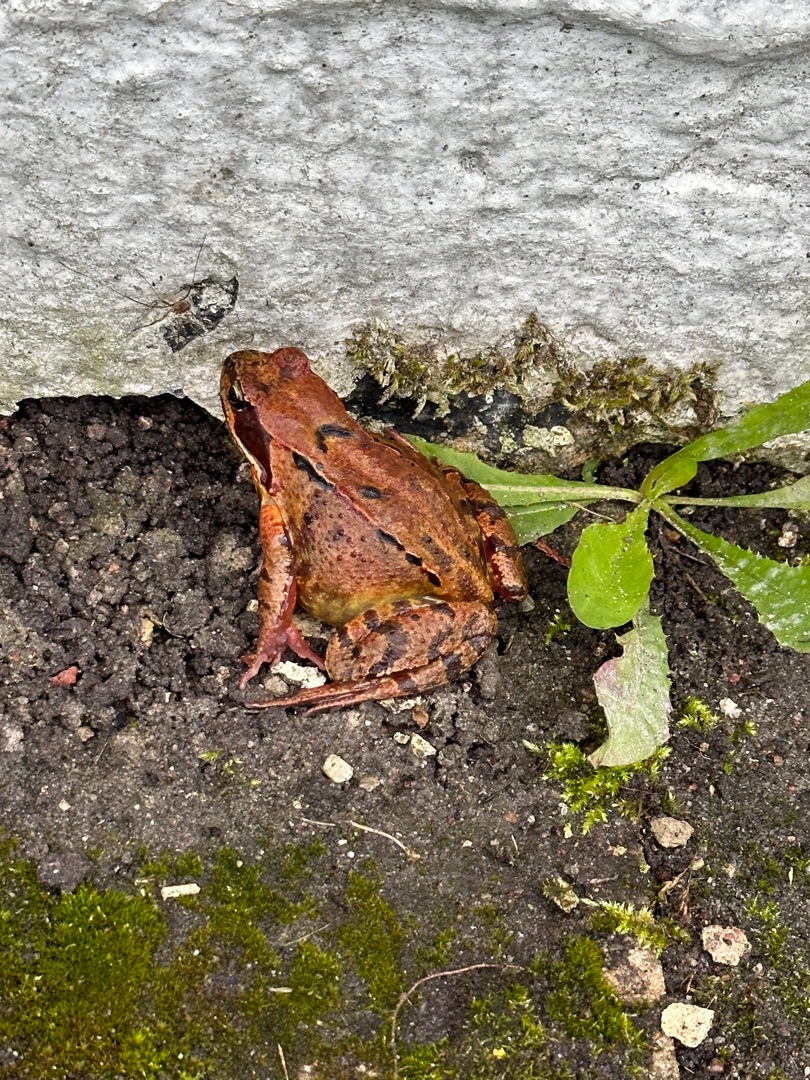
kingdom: Animalia
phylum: Chordata
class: Amphibia
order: Anura
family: Ranidae
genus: Rana
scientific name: Rana temporaria
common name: Butsnudet frø
